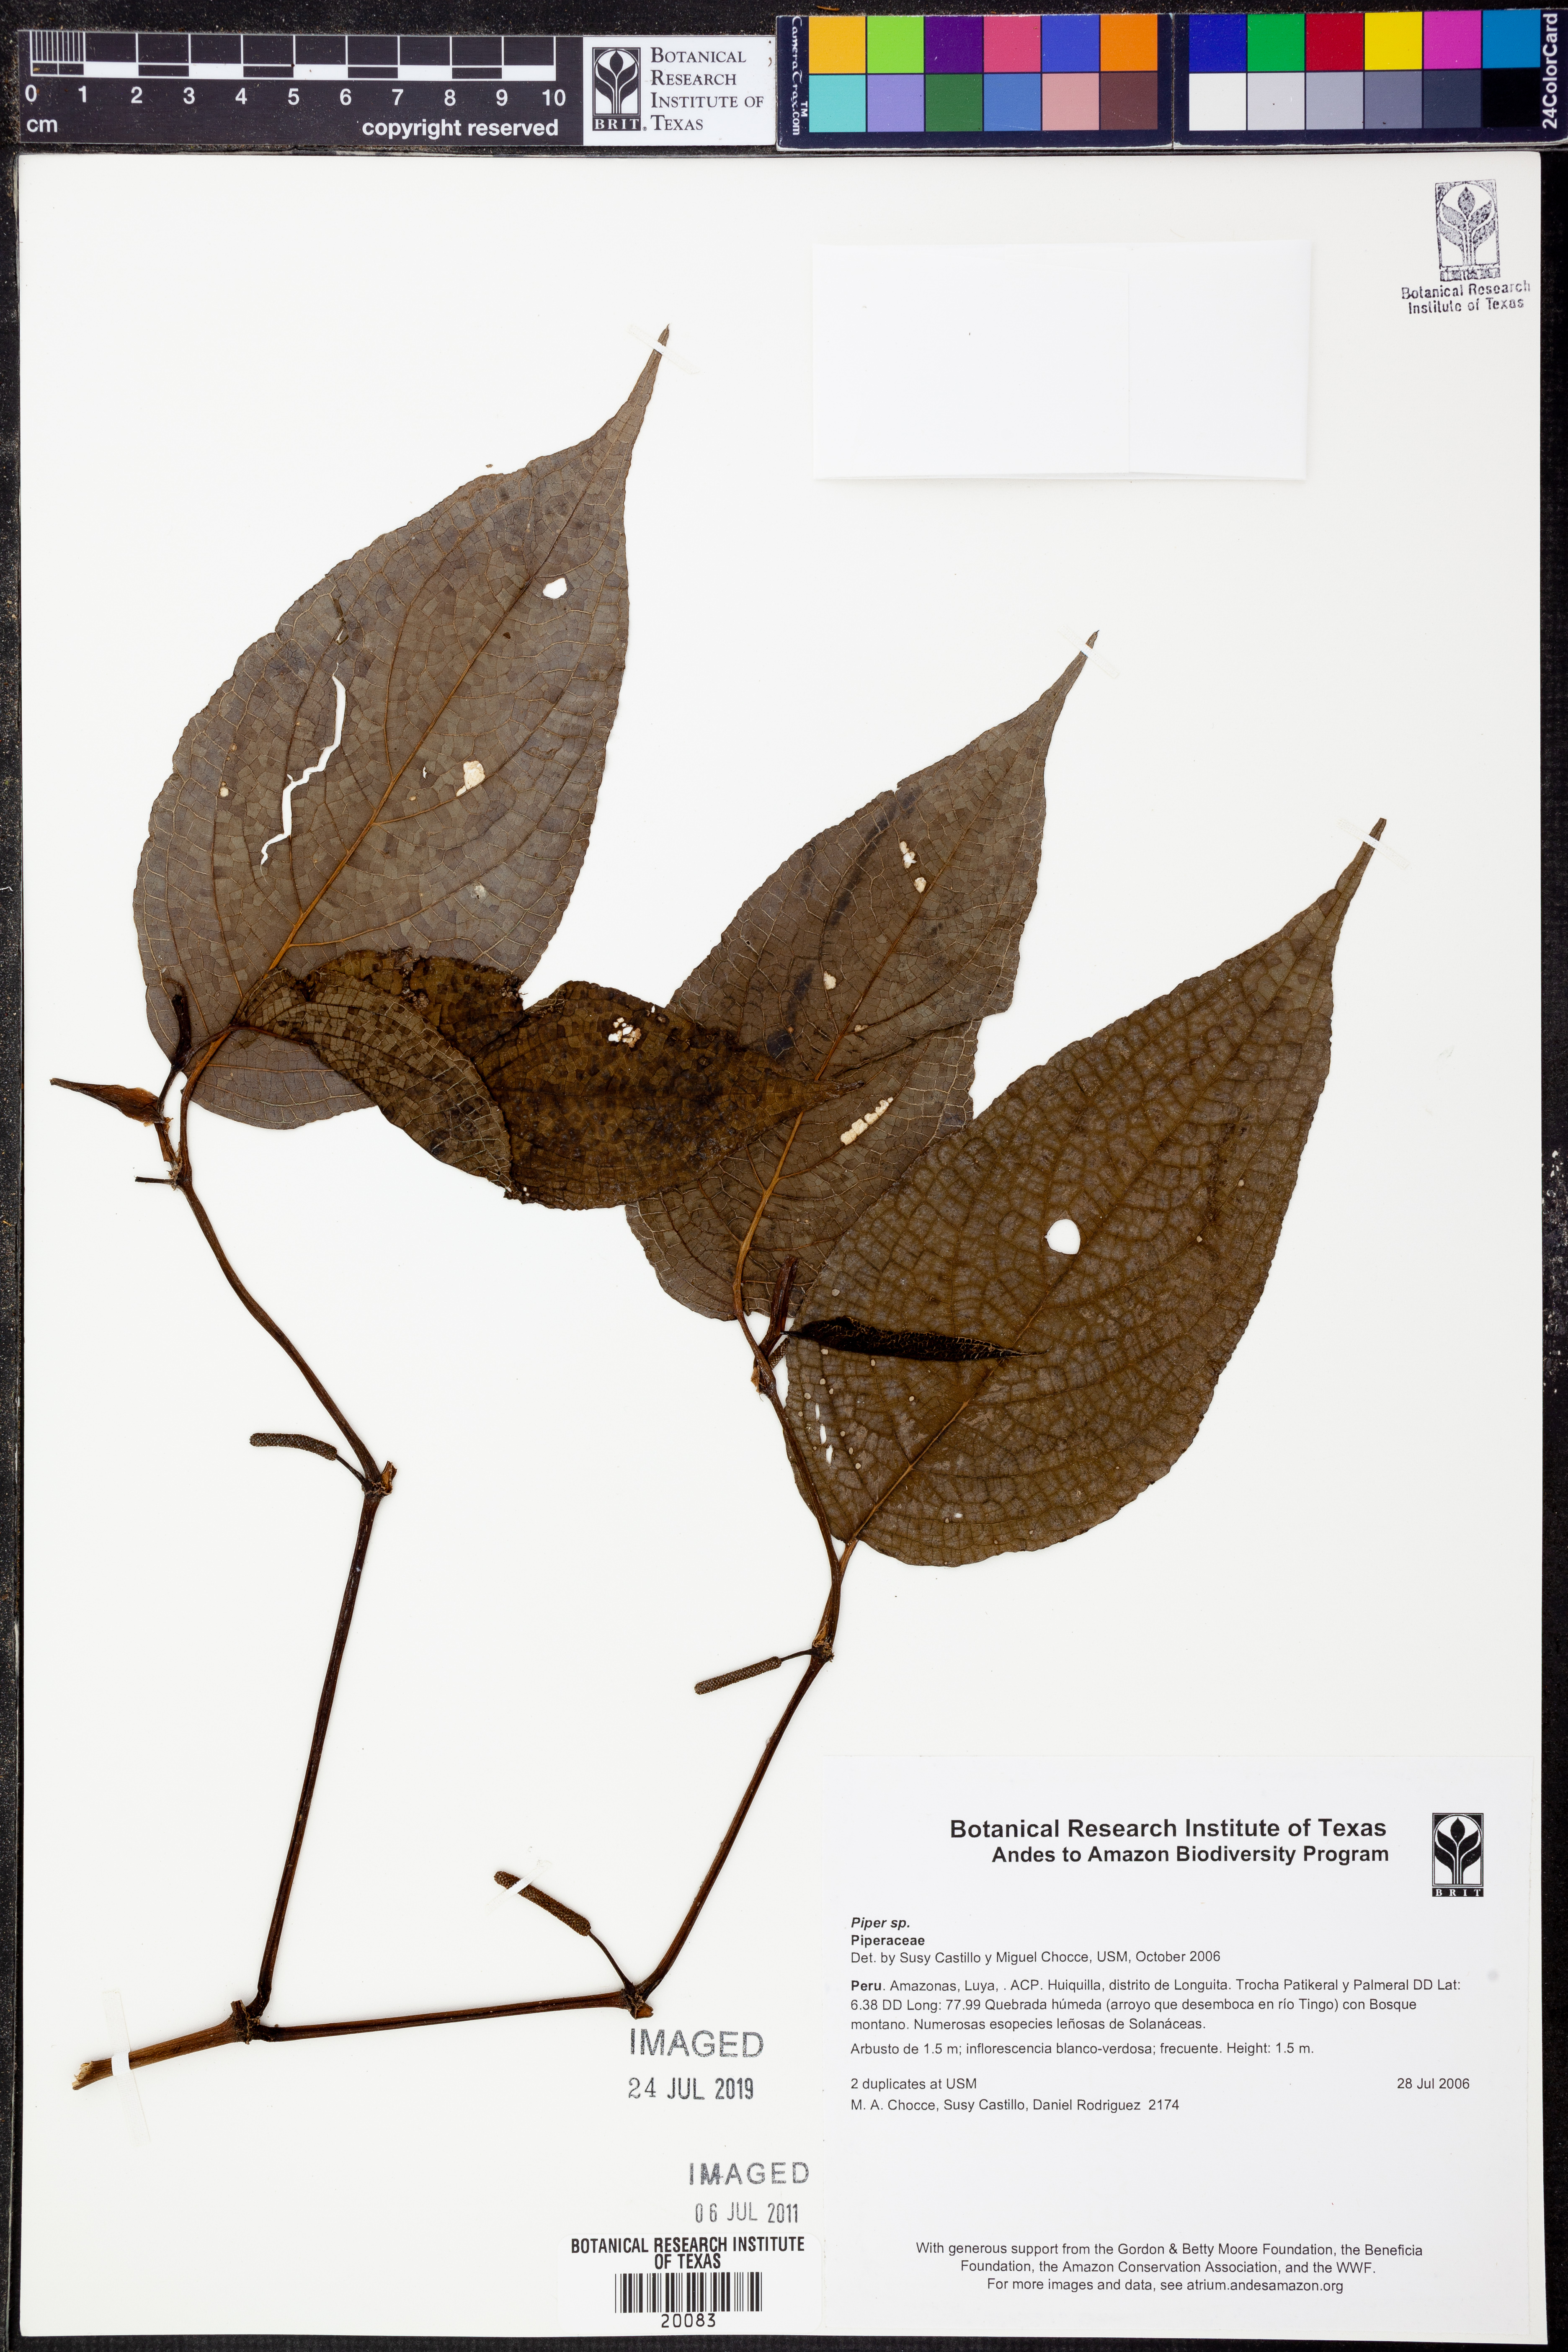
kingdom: Plantae
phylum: Tracheophyta
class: Magnoliopsida
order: Piperales
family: Piperaceae
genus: Piper
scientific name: Piper
